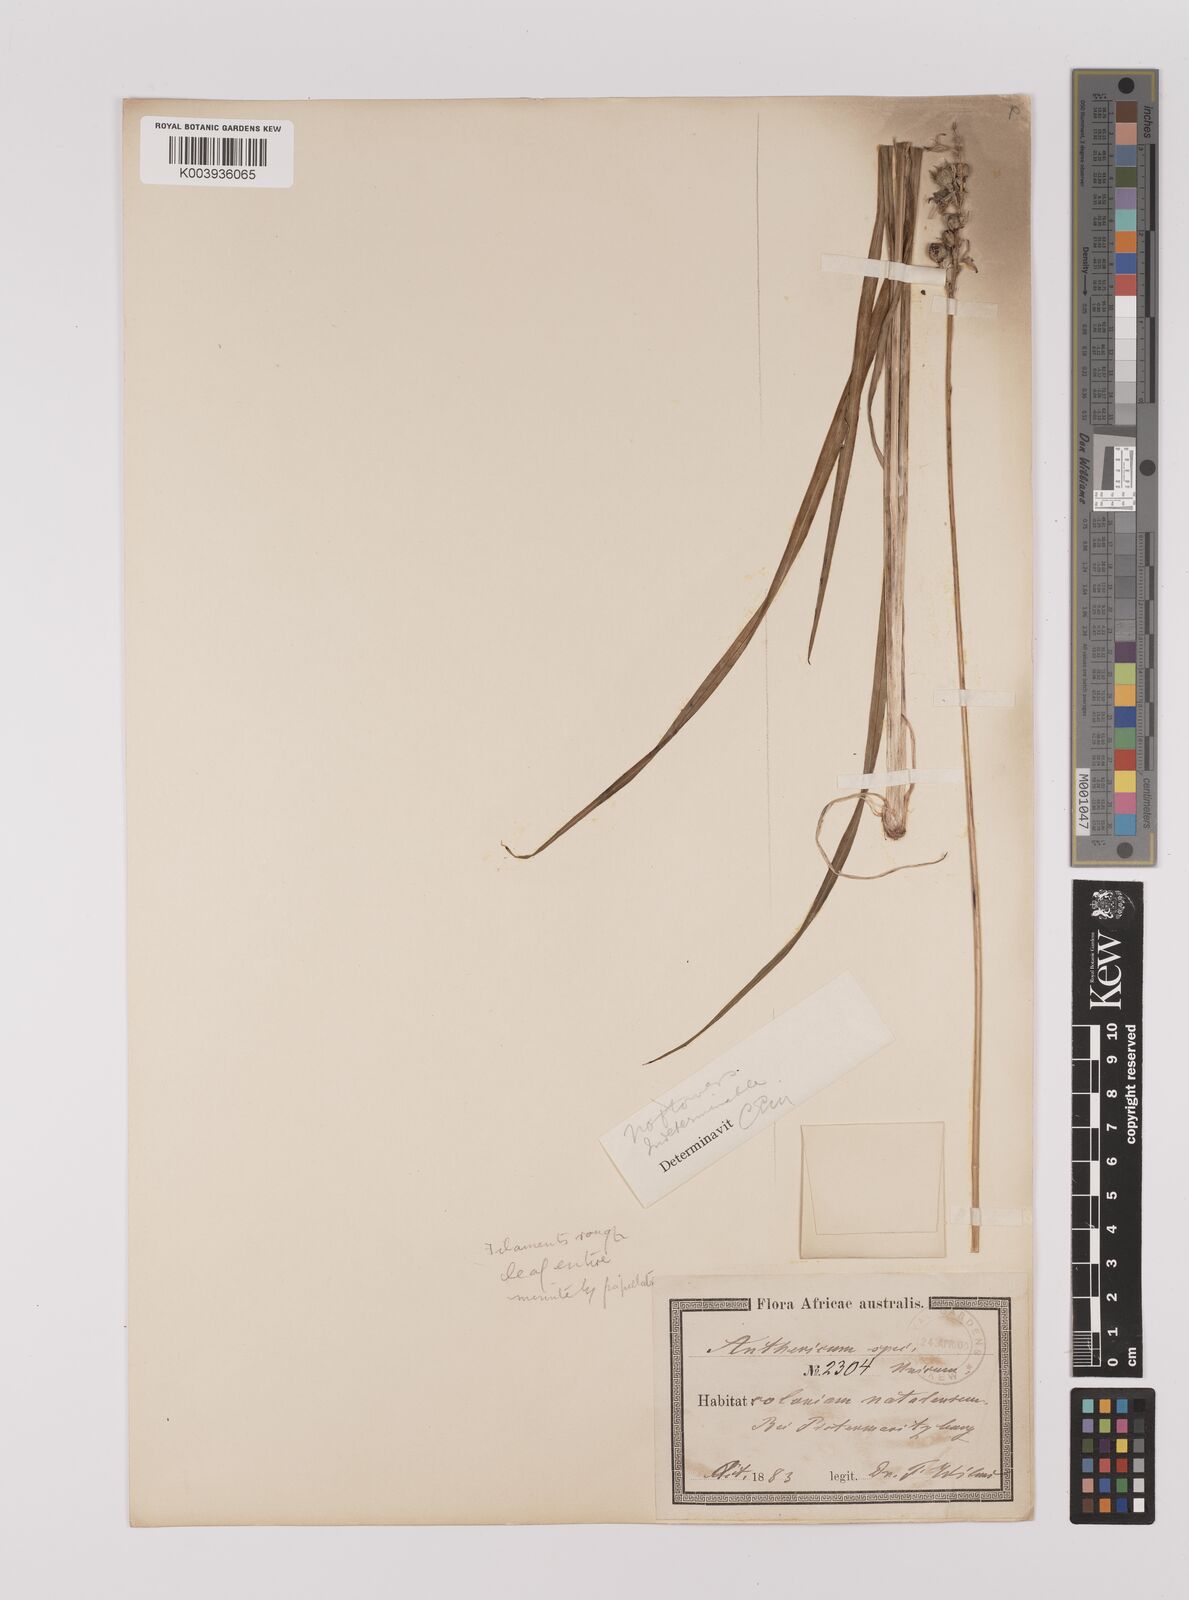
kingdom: Plantae
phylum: Tracheophyta
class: Liliopsida
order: Asparagales
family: Asparagaceae
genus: Chlorophytum
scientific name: Chlorophytum saundersiae
